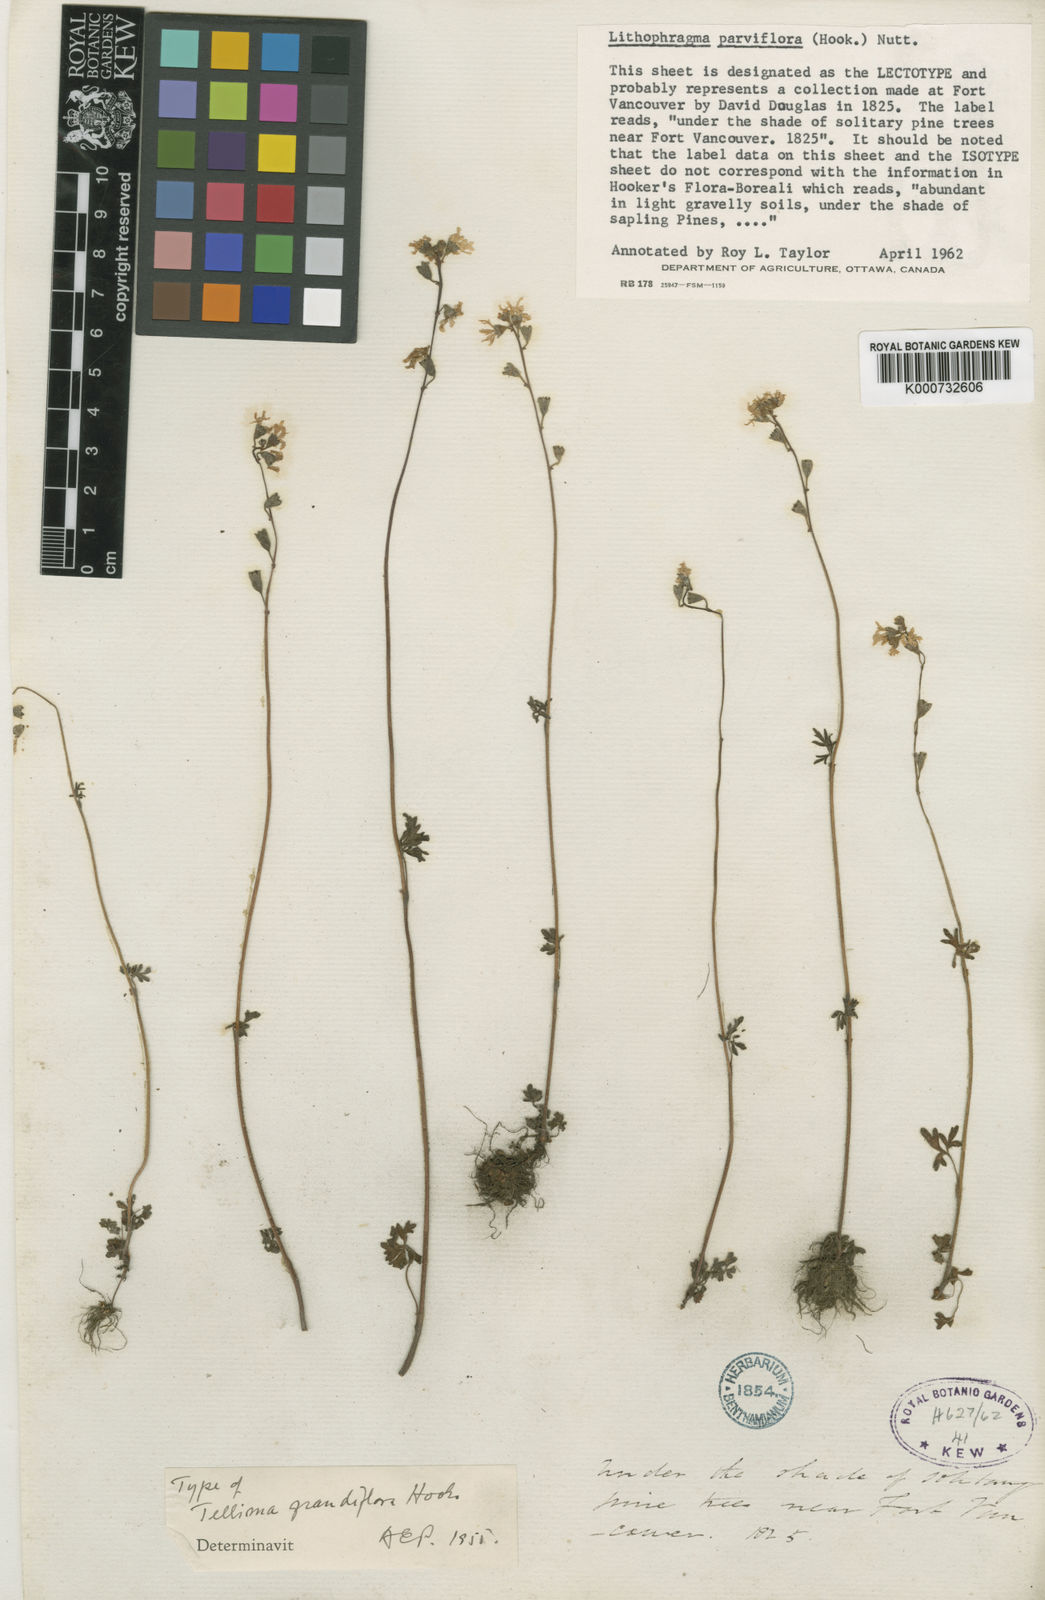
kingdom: Plantae
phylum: Tracheophyta
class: Magnoliopsida
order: Saxifragales
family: Saxifragaceae
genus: Lithophragma
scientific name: Lithophragma parviflorum
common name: Small-flowered fringe-cup
